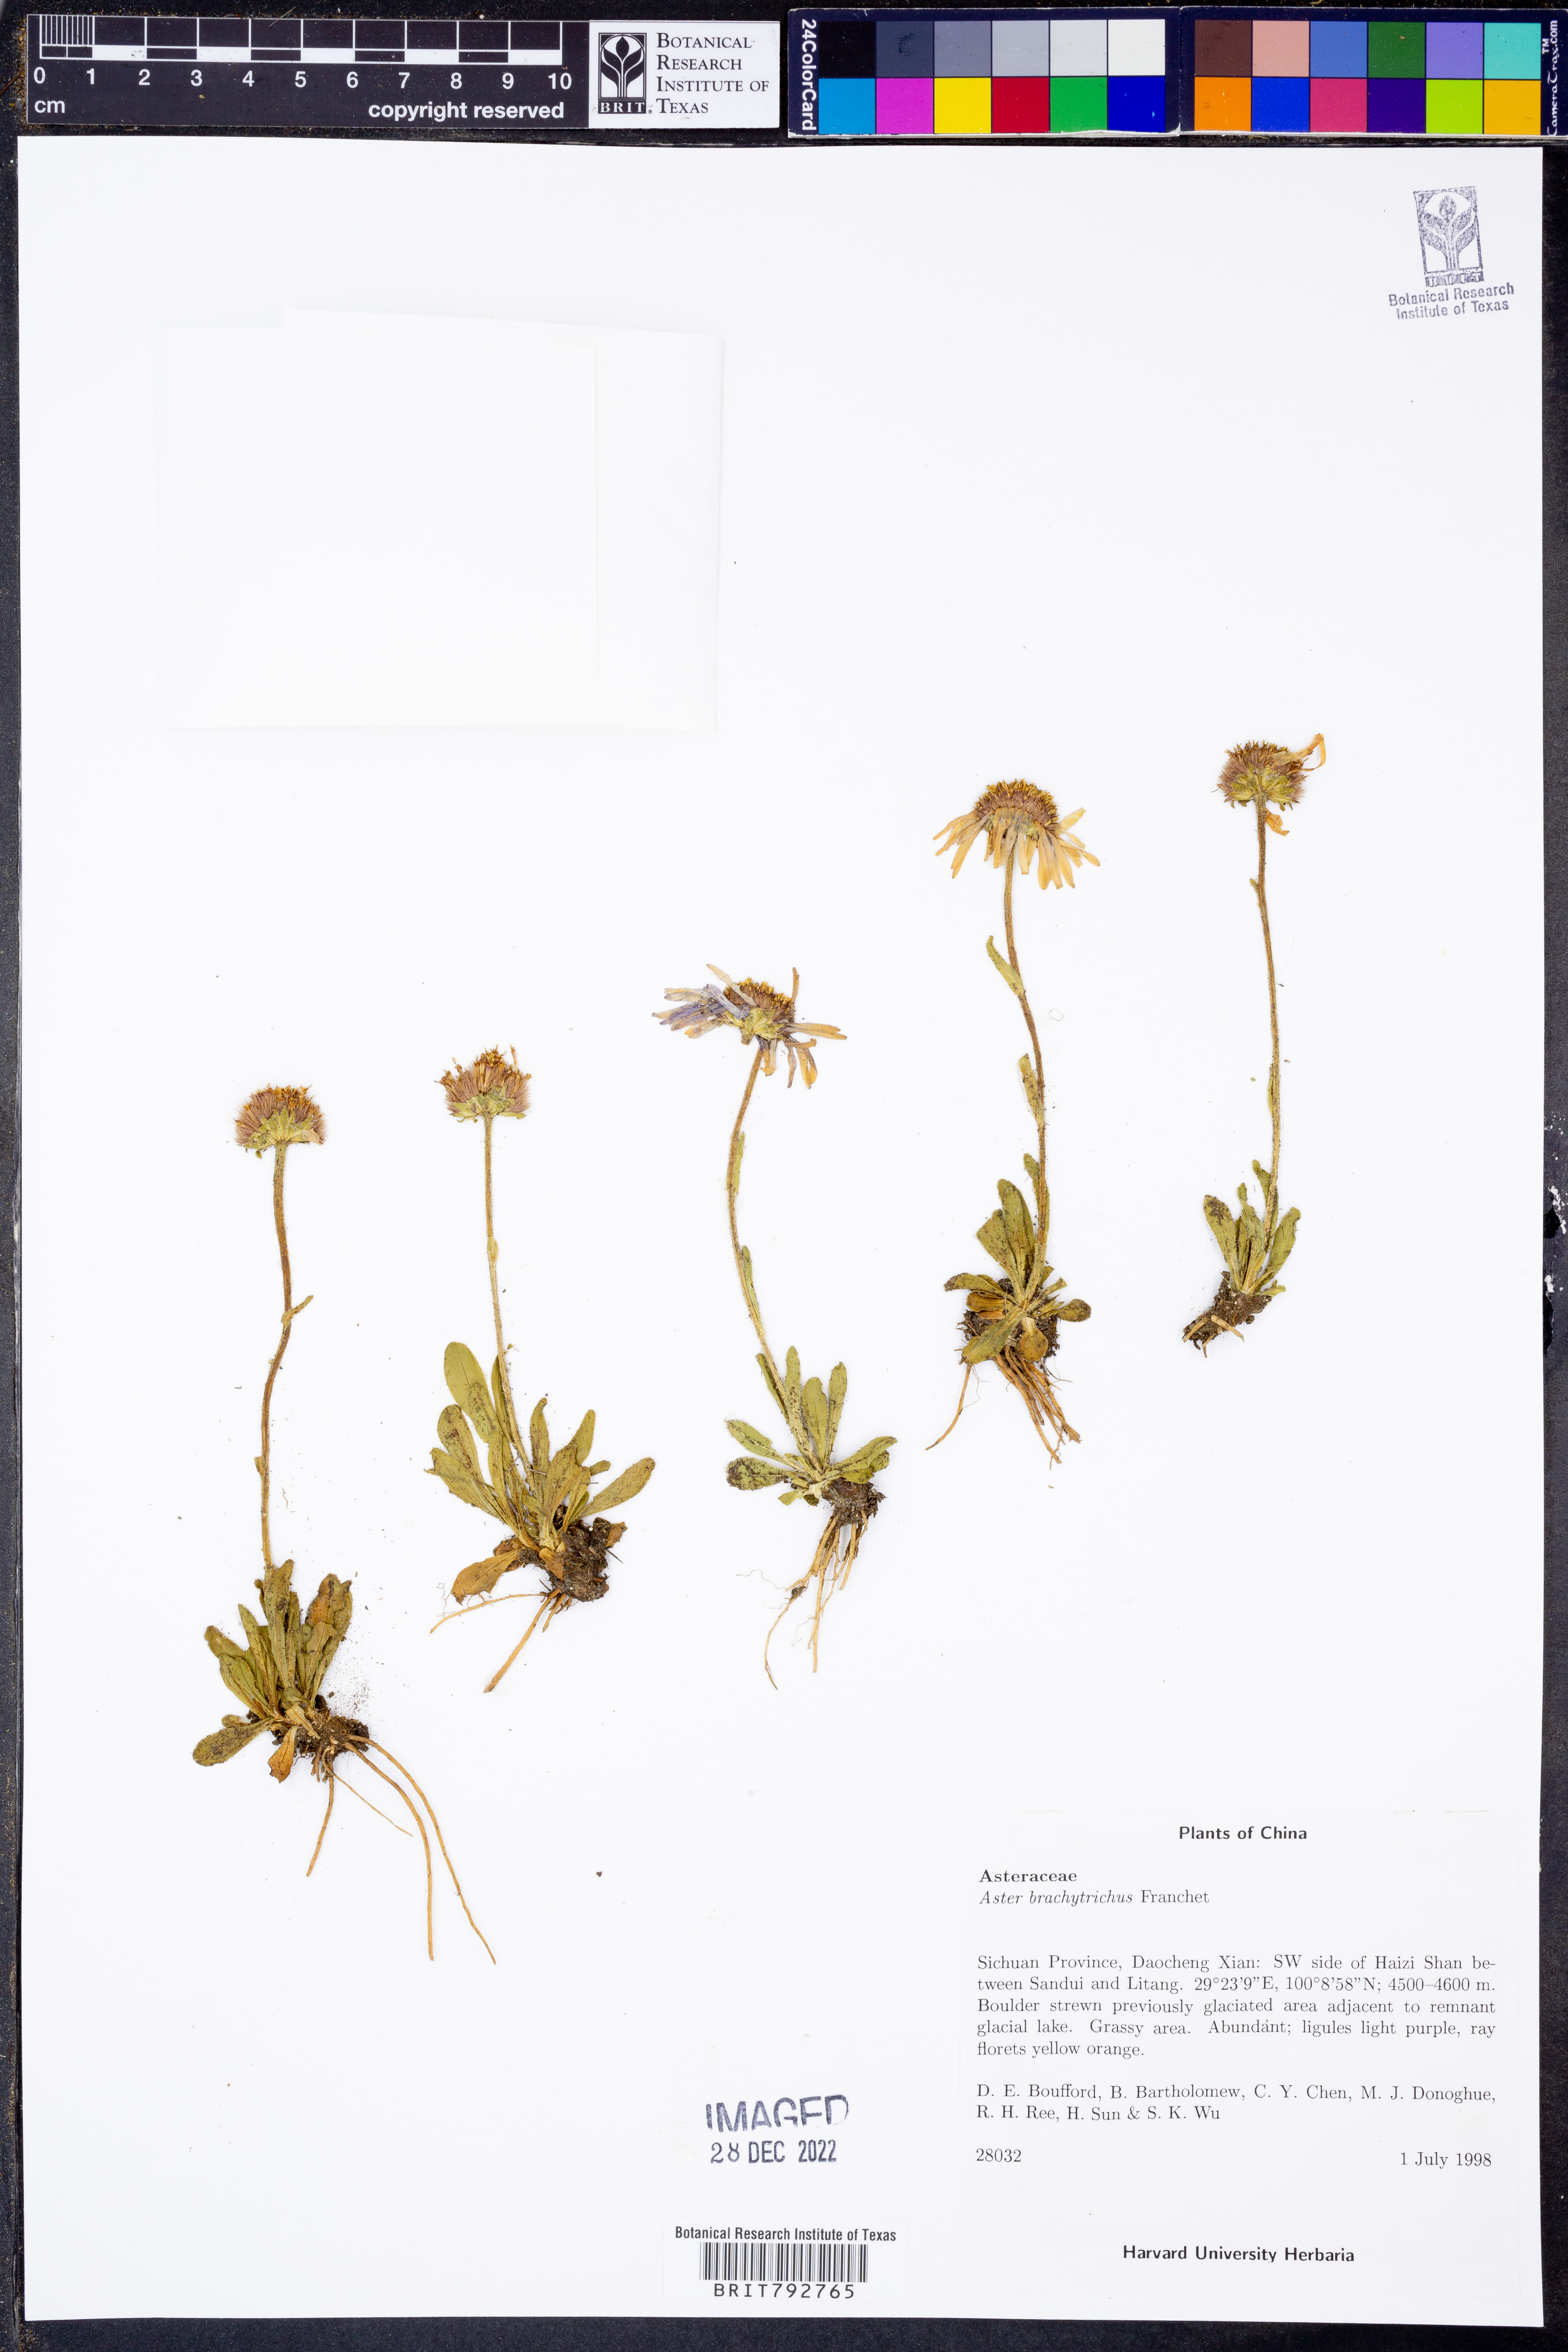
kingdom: Plantae
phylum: Tracheophyta
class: Magnoliopsida
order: Asterales
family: Asteraceae
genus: Tibetiodes
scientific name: Tibetiodes brachytricha
